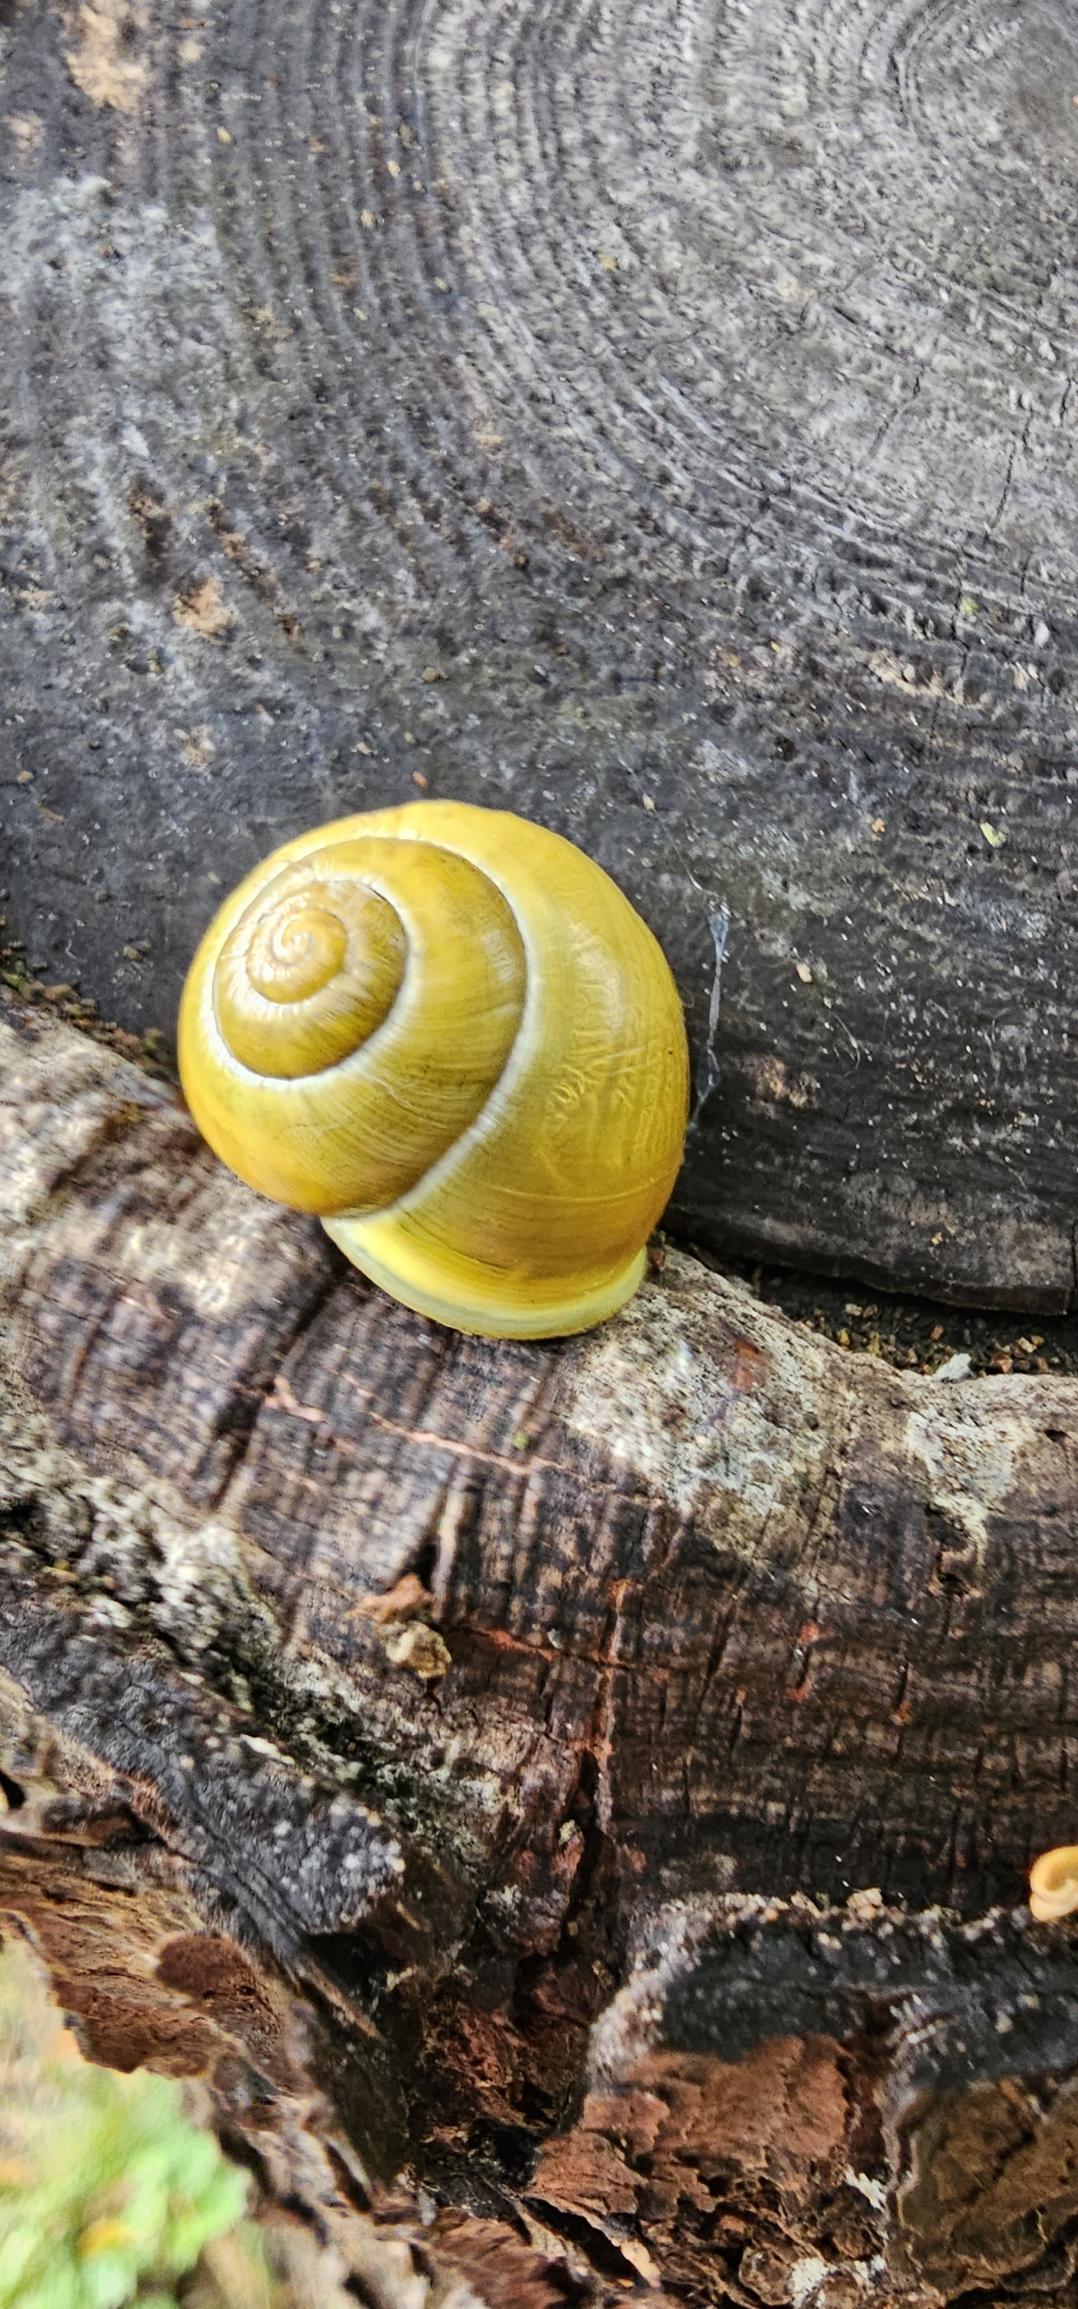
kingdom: Animalia
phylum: Mollusca
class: Gastropoda
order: Stylommatophora
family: Helicidae
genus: Cepaea
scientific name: Cepaea hortensis
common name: Havesnegl
